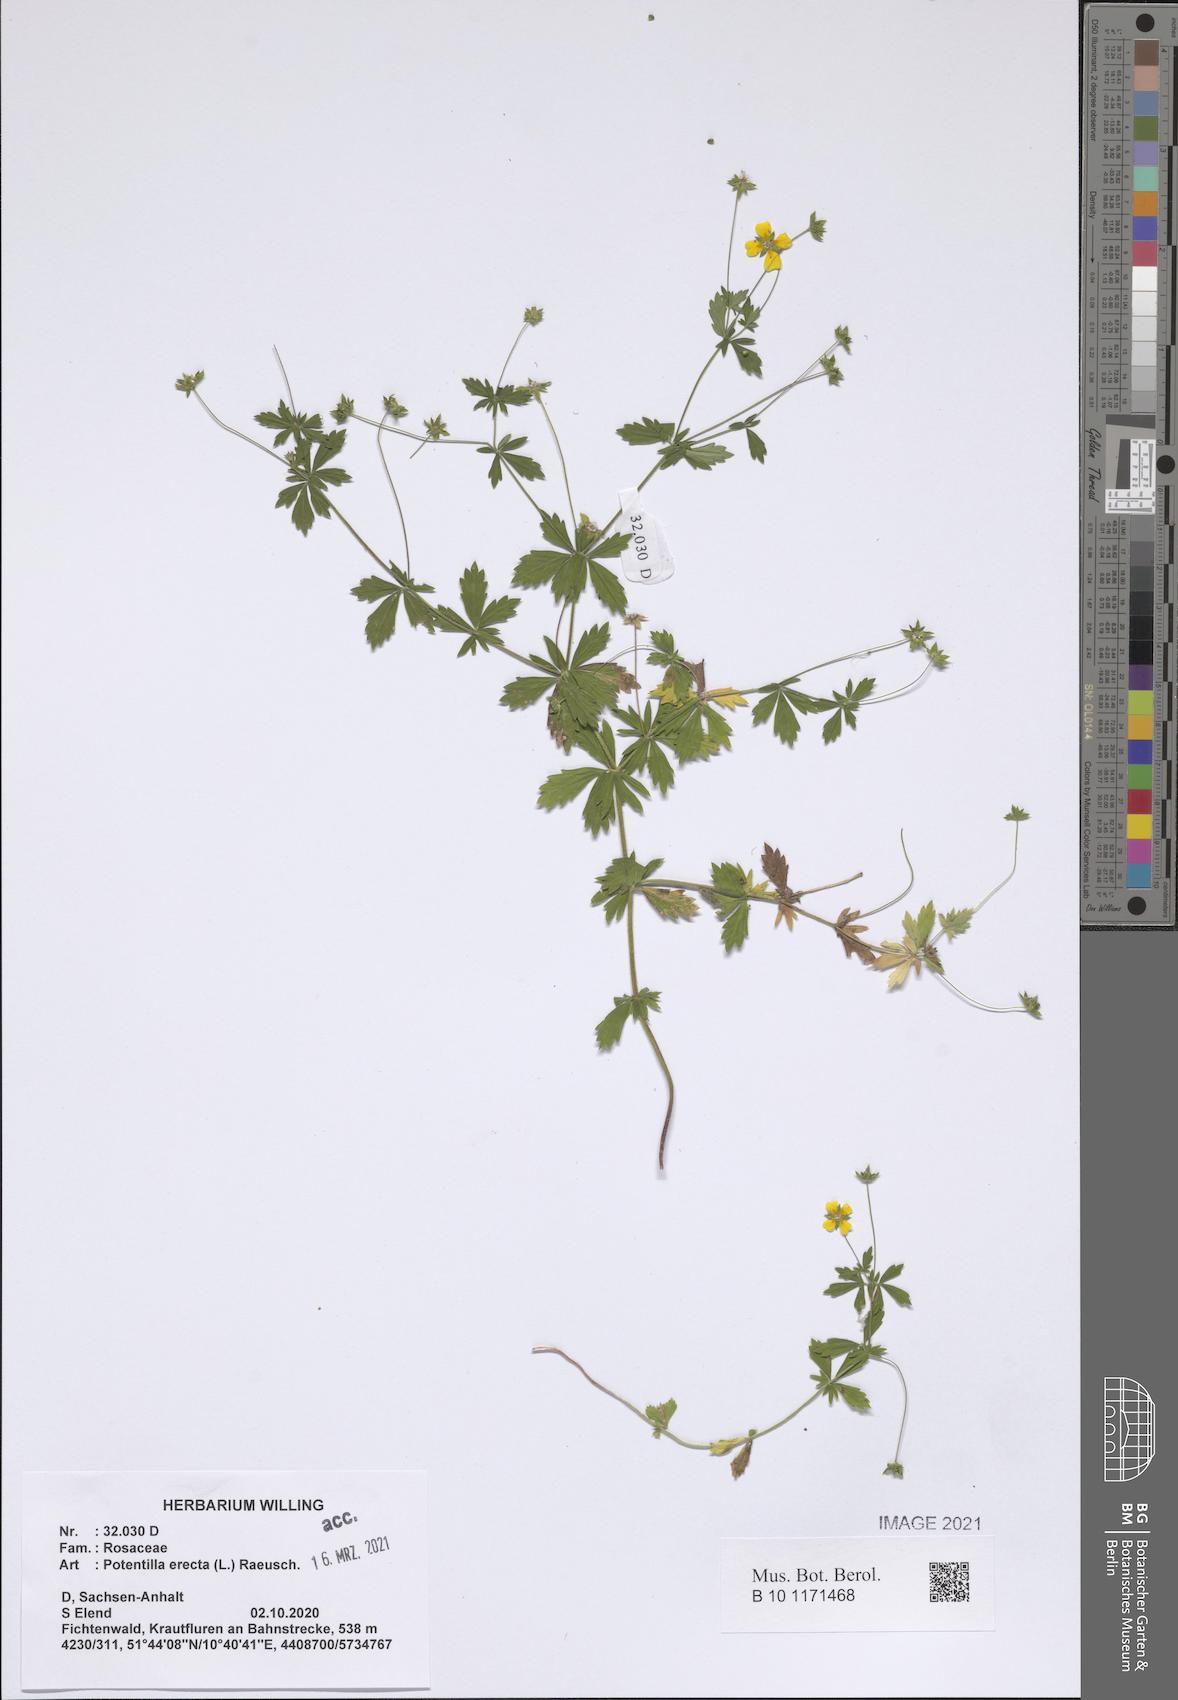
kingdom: Plantae
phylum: Tracheophyta
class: Magnoliopsida
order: Rosales
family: Rosaceae
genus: Potentilla
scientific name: Potentilla erecta
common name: Tormentil
